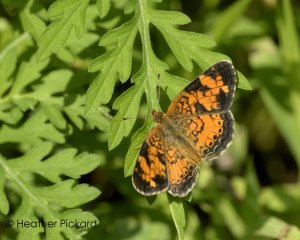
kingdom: Animalia
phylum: Arthropoda
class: Insecta
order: Lepidoptera
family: Nymphalidae
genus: Phyciodes
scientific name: Phyciodes tharos
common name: Northern Crescent
